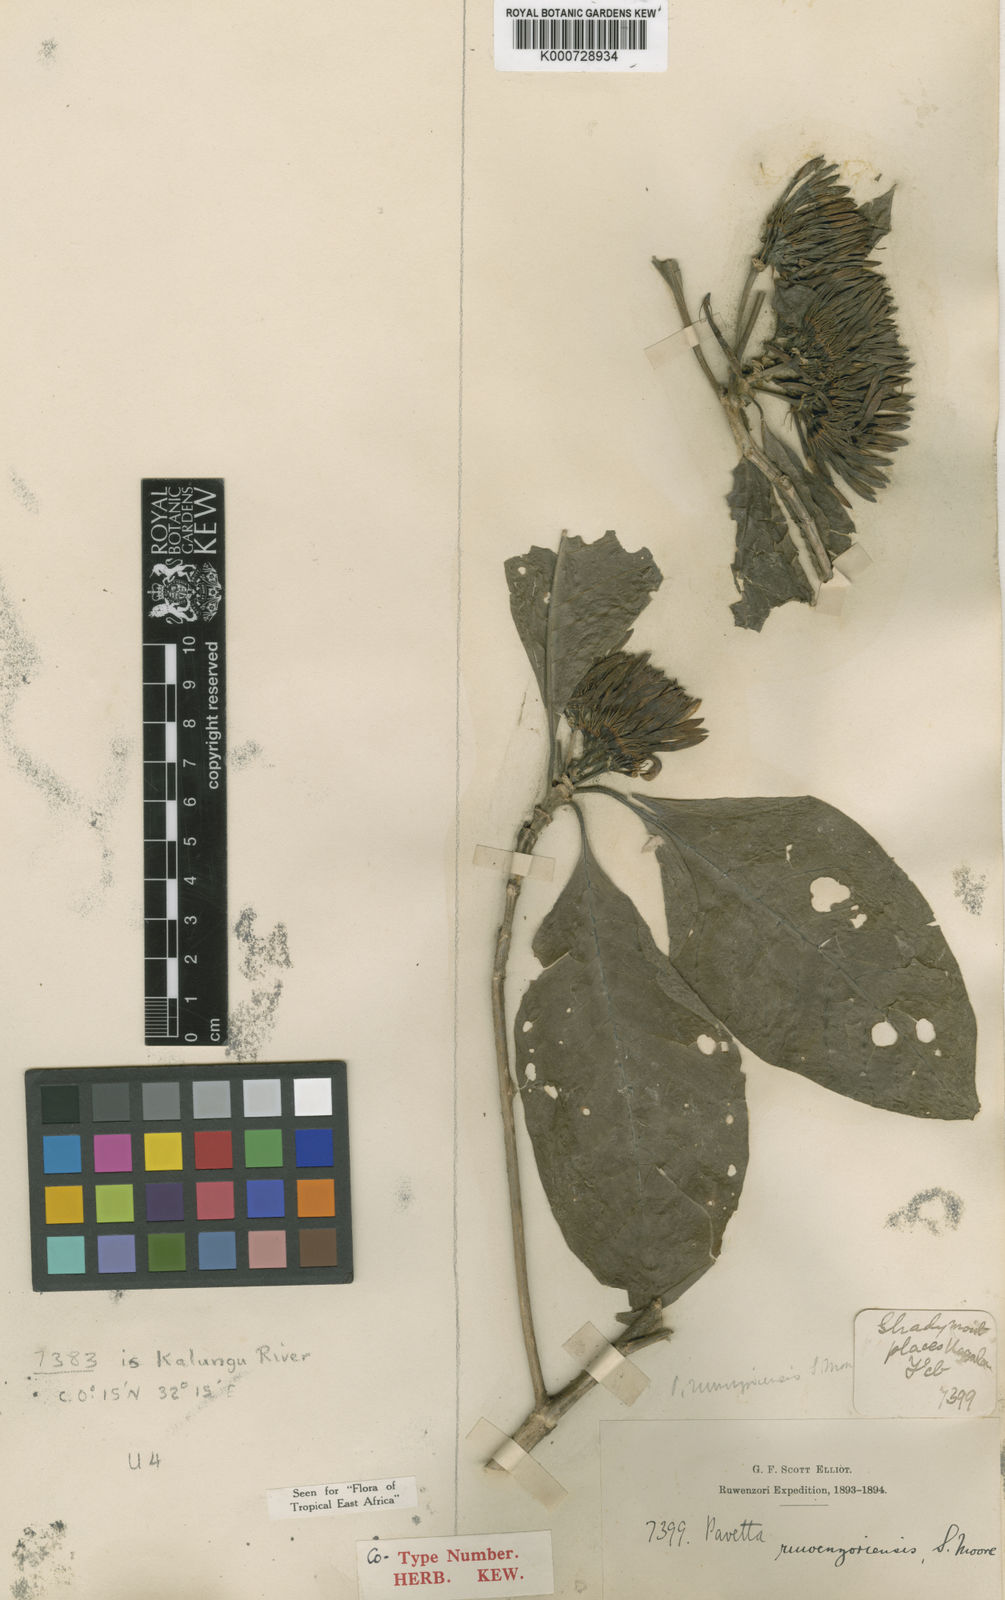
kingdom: Plantae
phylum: Tracheophyta
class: Magnoliopsida
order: Gentianales
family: Rubiaceae
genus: Pavetta
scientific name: Pavetta ruwenzoriensis
